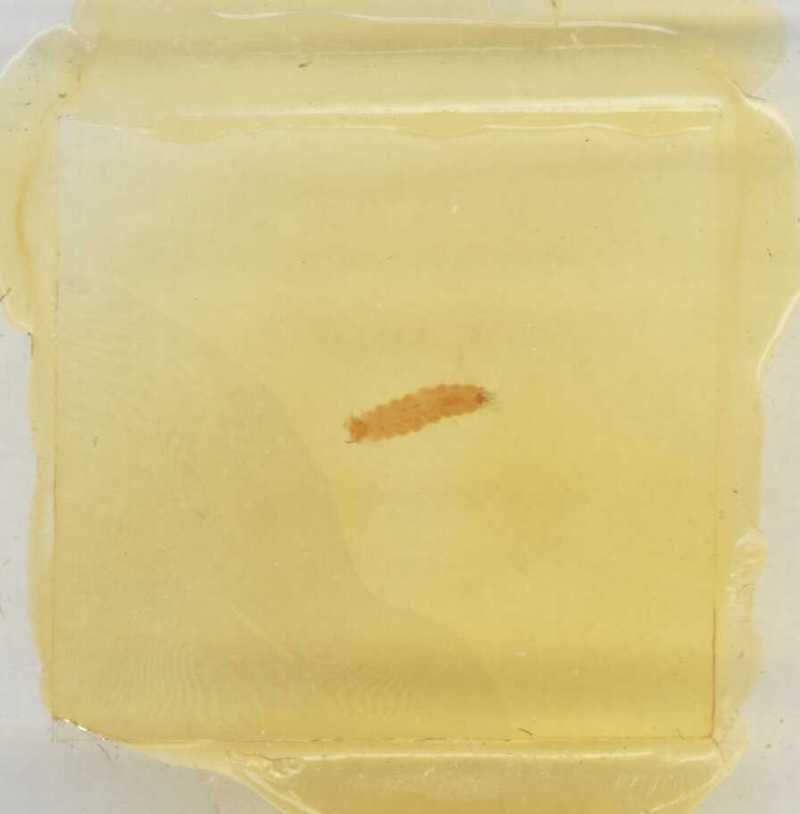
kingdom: Animalia
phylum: Arthropoda
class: Diplopoda
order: Polyxenida
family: Polyxenidae
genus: Propolyxenus
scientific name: Propolyxenus argentifer
